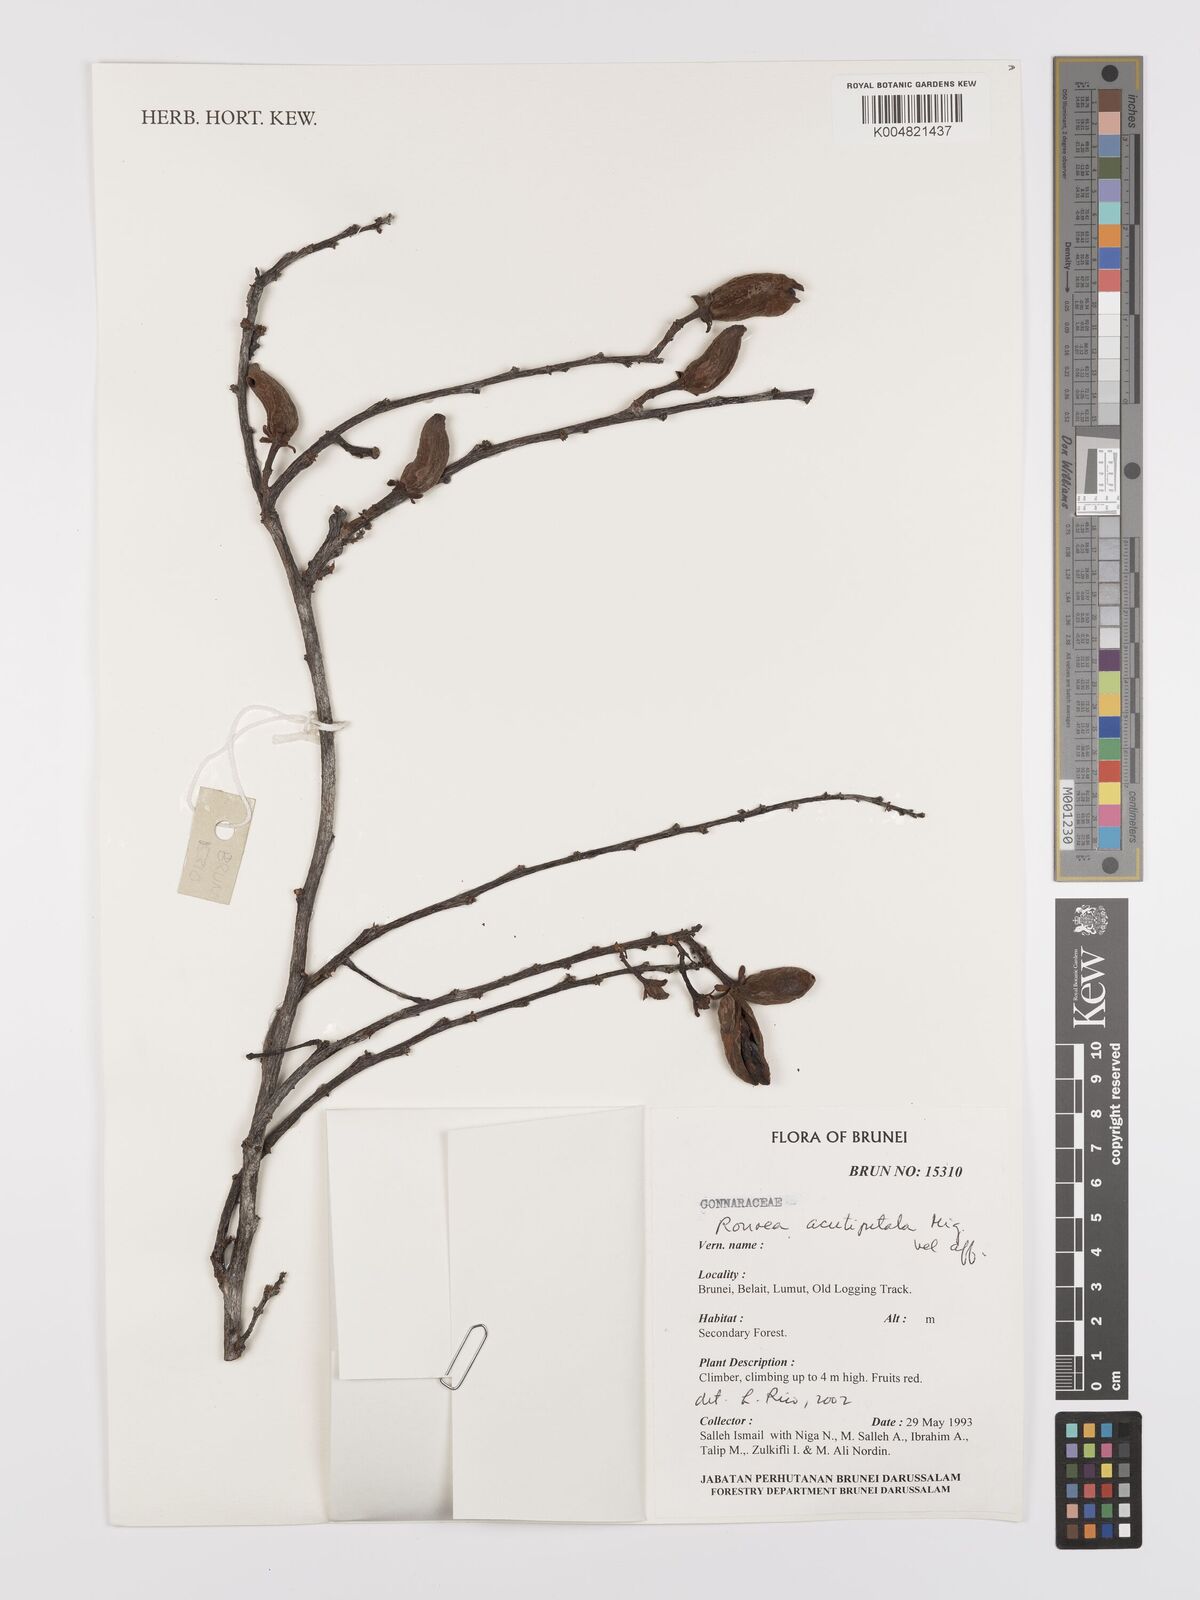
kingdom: Plantae
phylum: Tracheophyta
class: Magnoliopsida
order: Oxalidales
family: Connaraceae
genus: Rourea
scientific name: Rourea acutipetala
